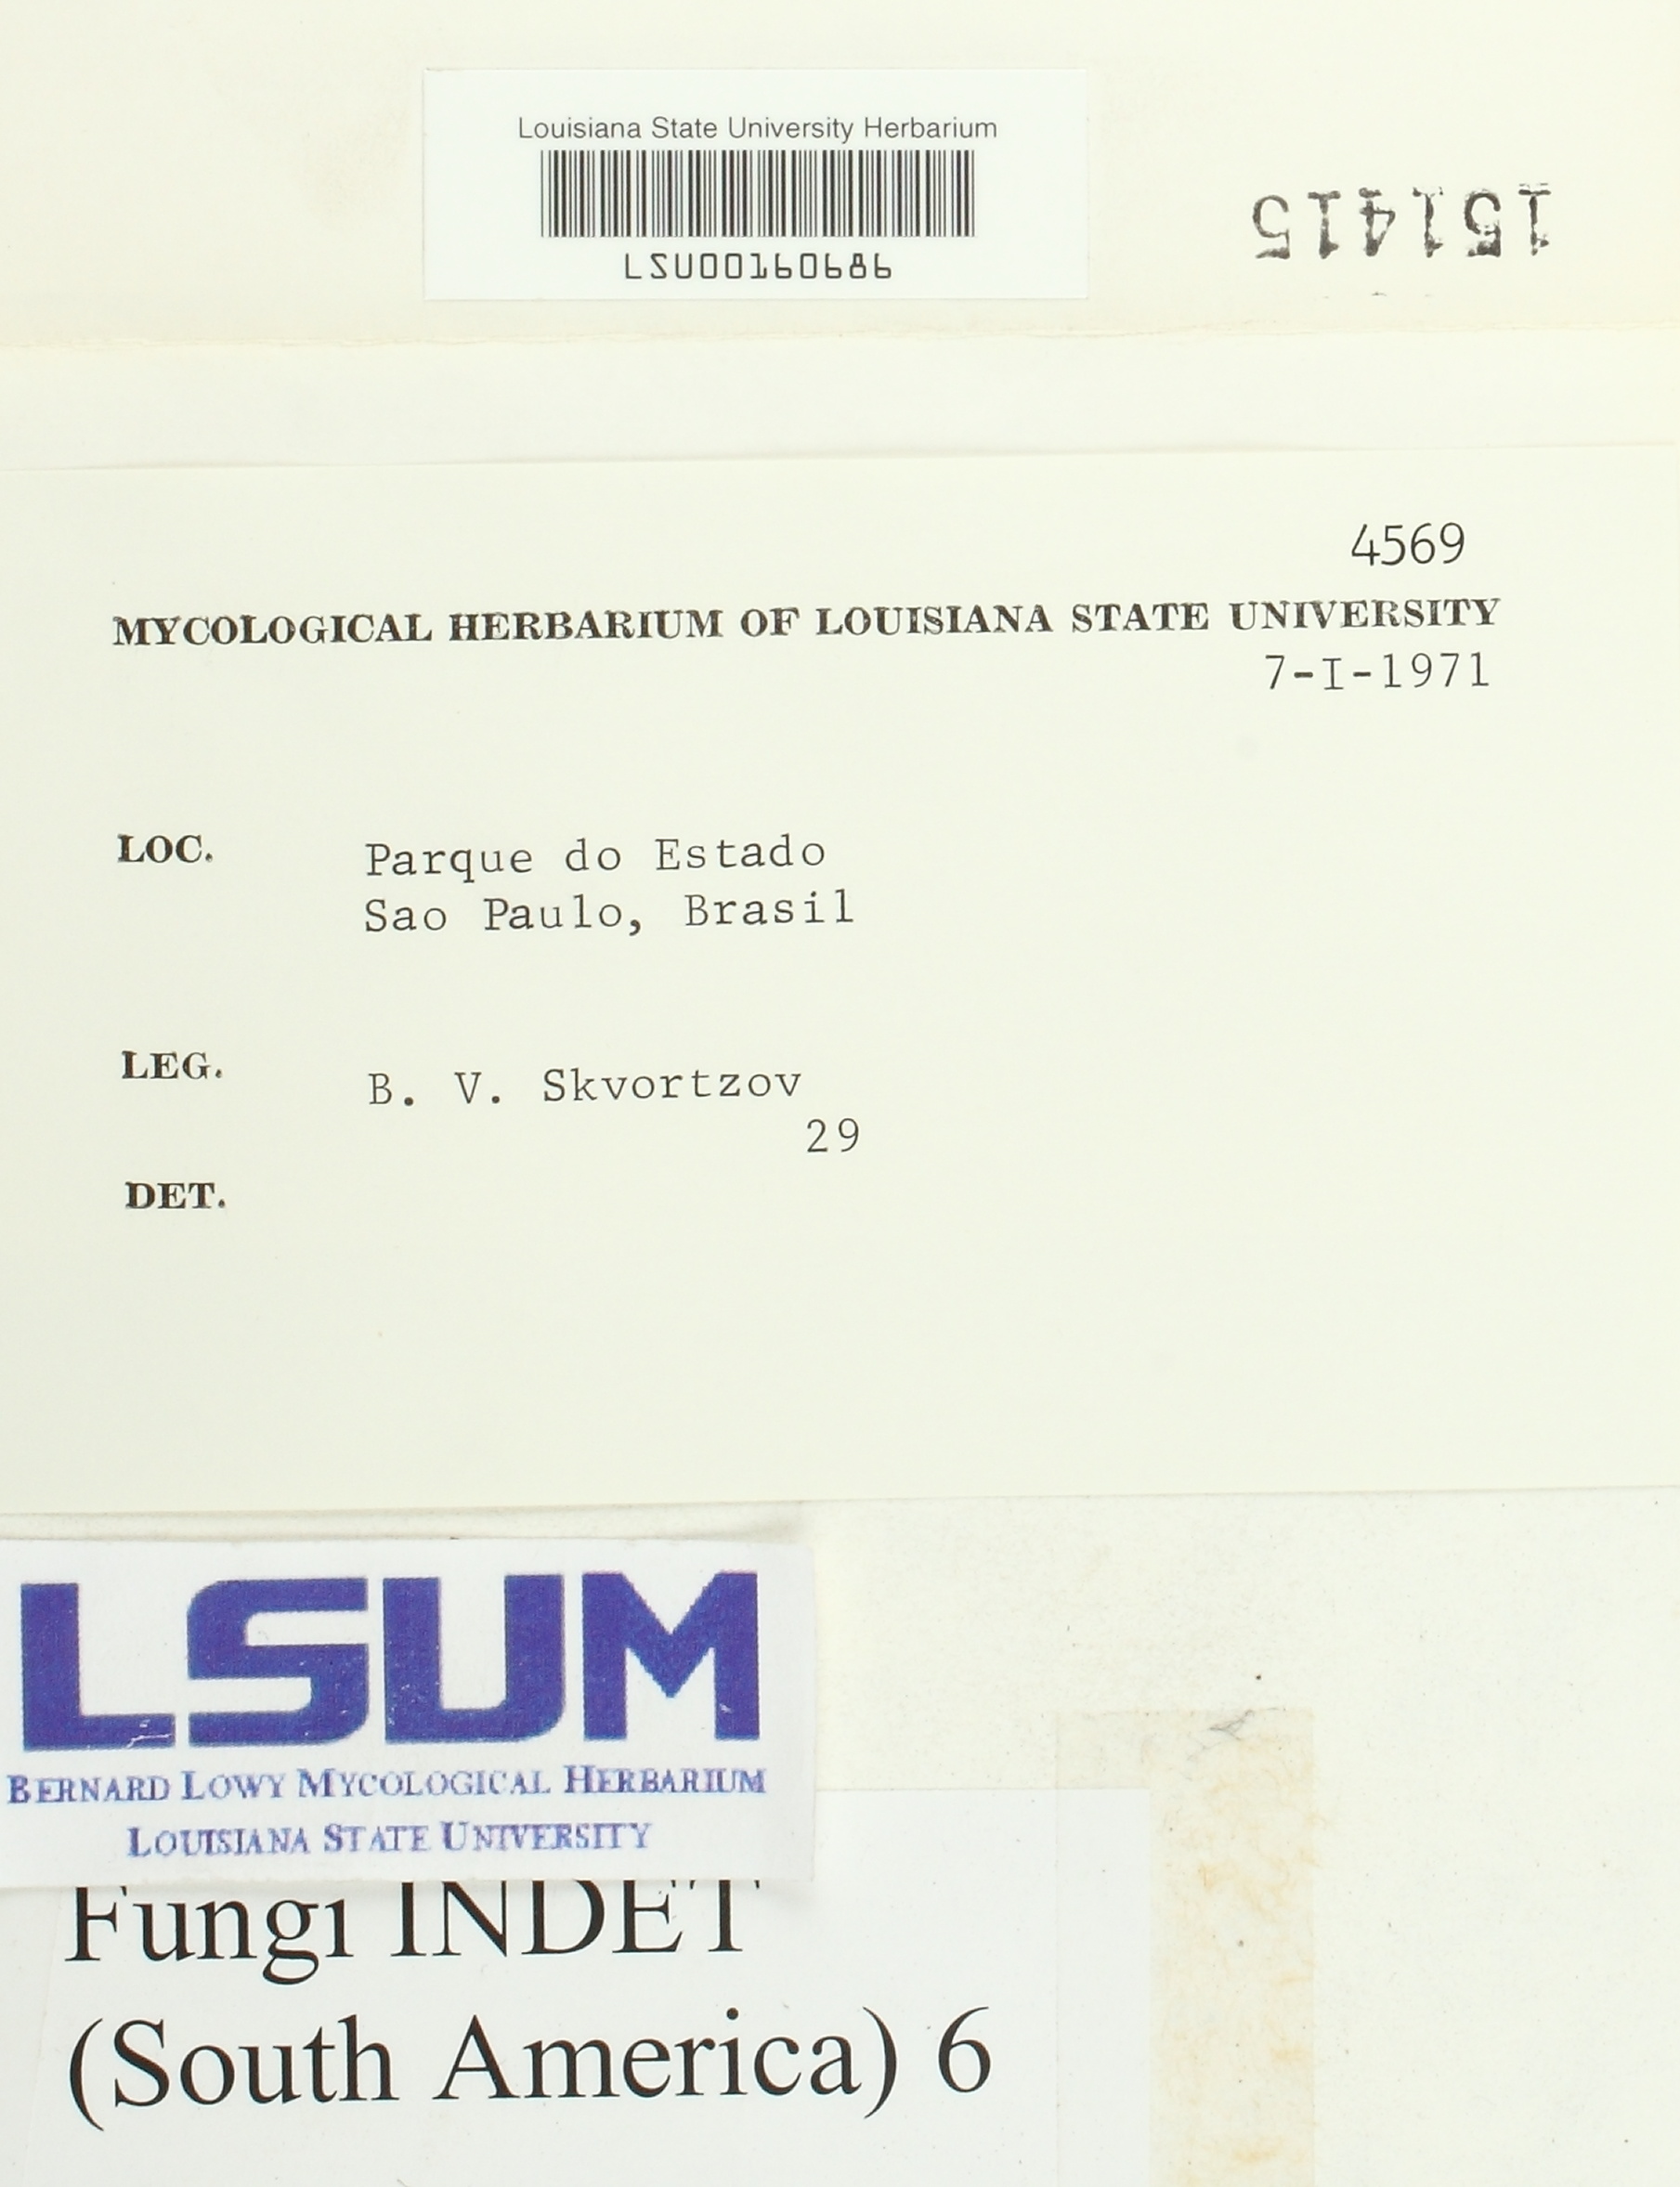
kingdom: Fungi
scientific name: Fungi
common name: Fungi
